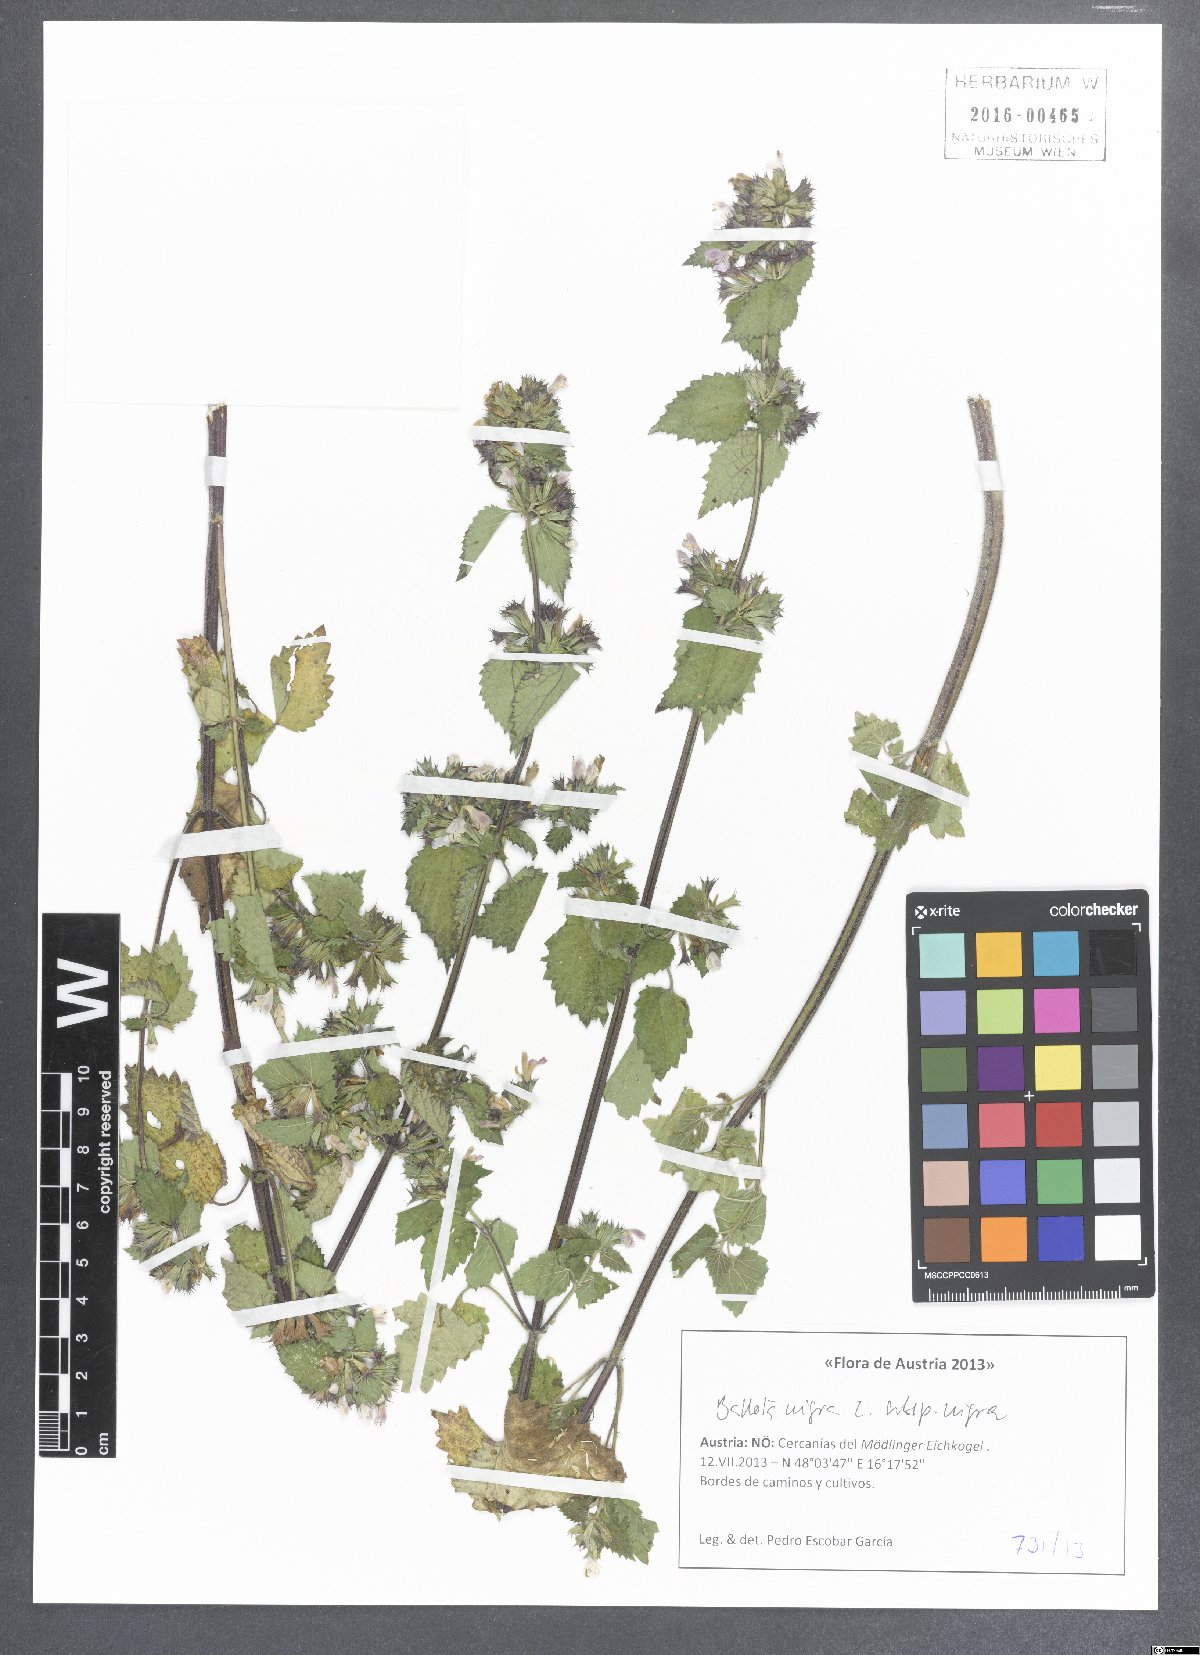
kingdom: Plantae
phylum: Tracheophyta
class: Magnoliopsida
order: Lamiales
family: Lamiaceae
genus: Ballota
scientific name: Ballota nigra
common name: Black horehound
